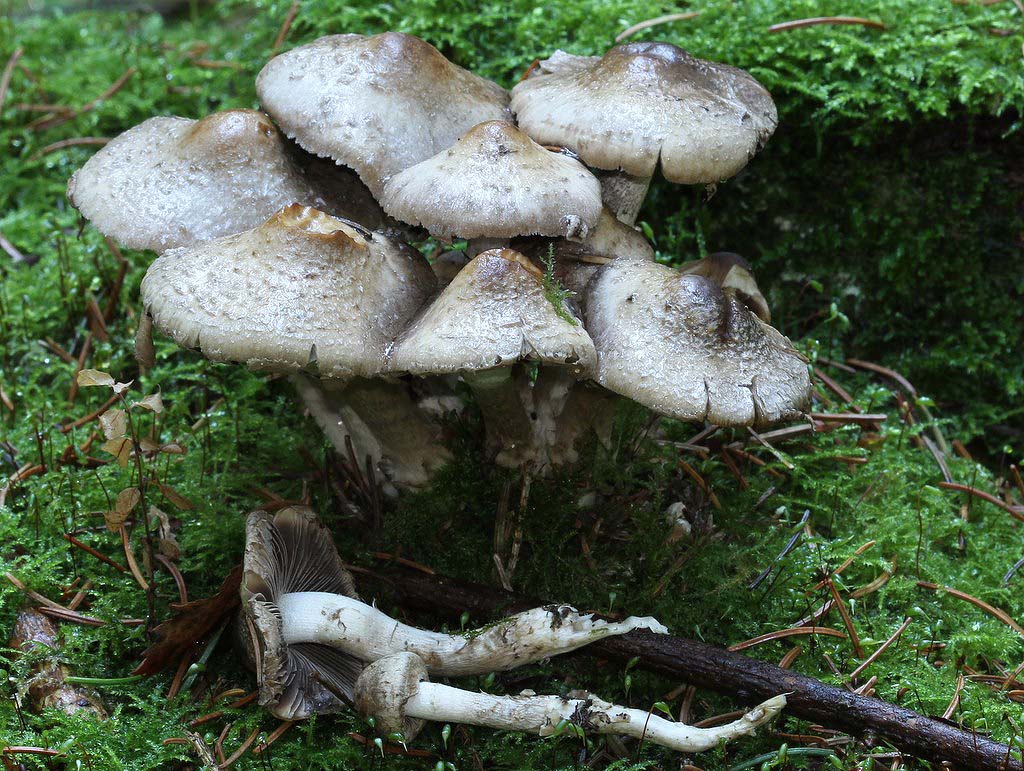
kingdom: Fungi
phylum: Basidiomycota
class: Agaricomycetes
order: Agaricales
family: Psathyrellaceae
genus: Psathyrella
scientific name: Psathyrella caput-medusae
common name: medusa-mørkhat
